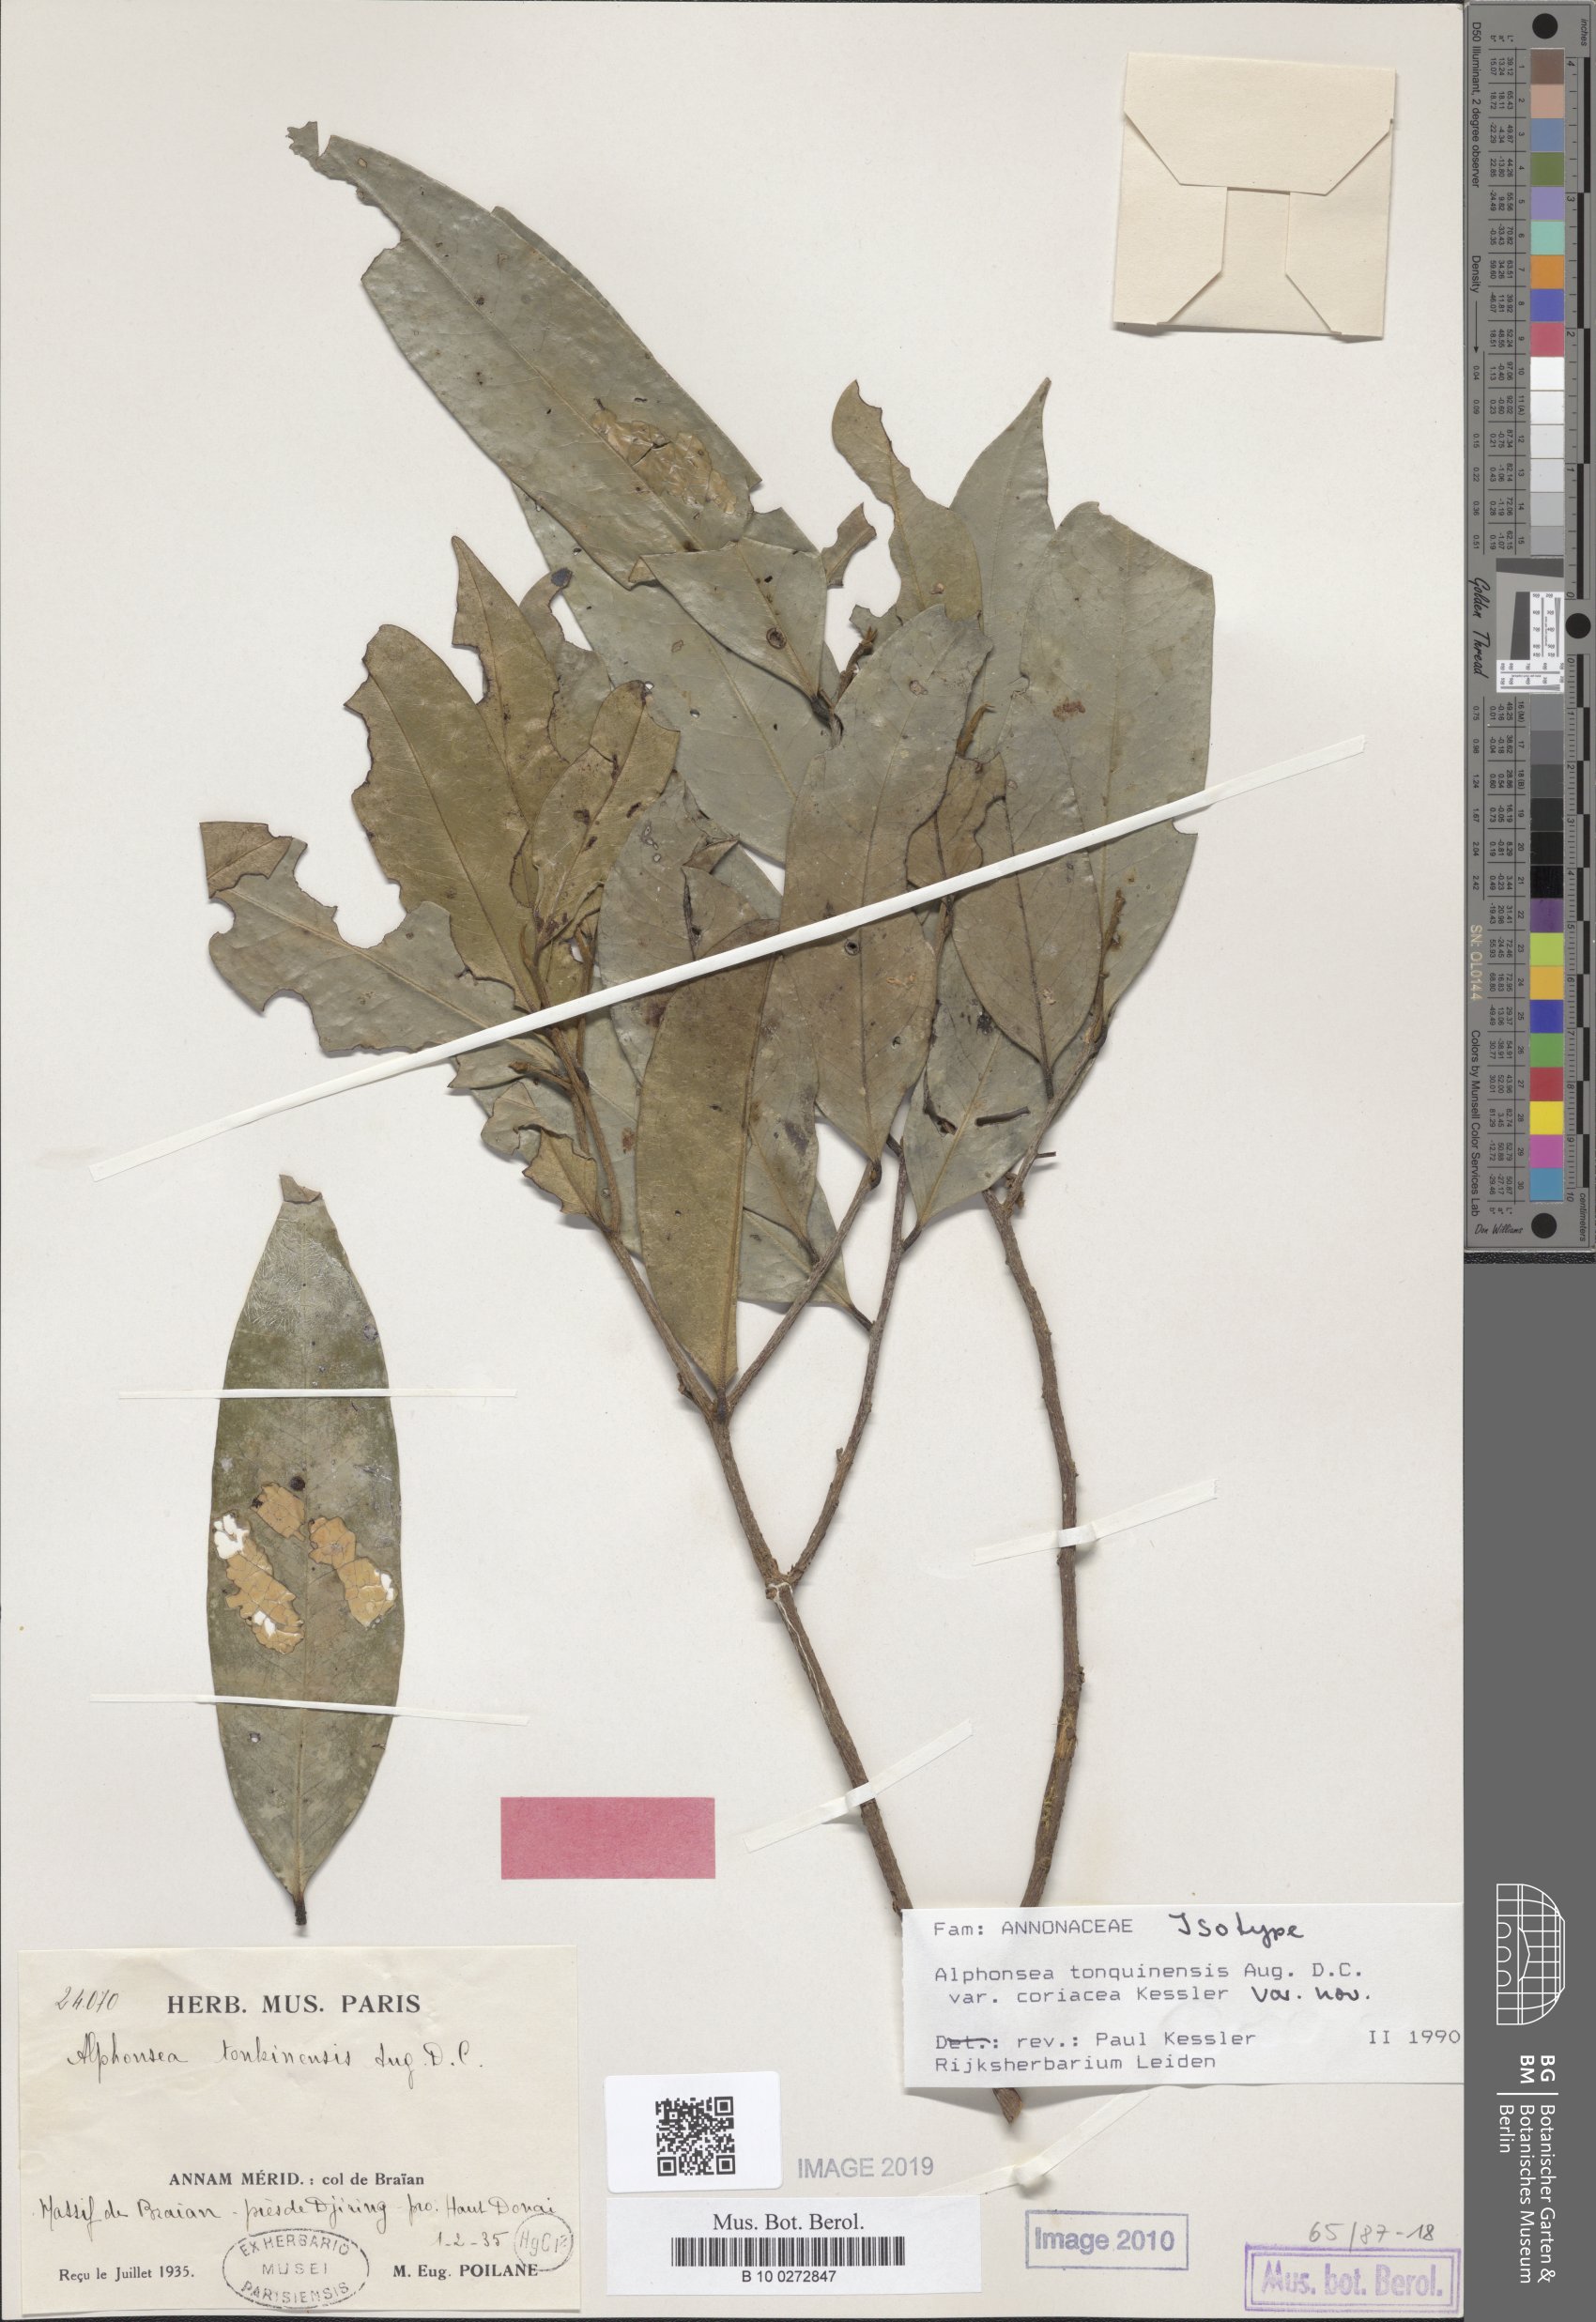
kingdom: Plantae
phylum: Tracheophyta
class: Magnoliopsida
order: Magnoliales
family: Annonaceae
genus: Alphonsea
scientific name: Alphonsea tonquinensis
